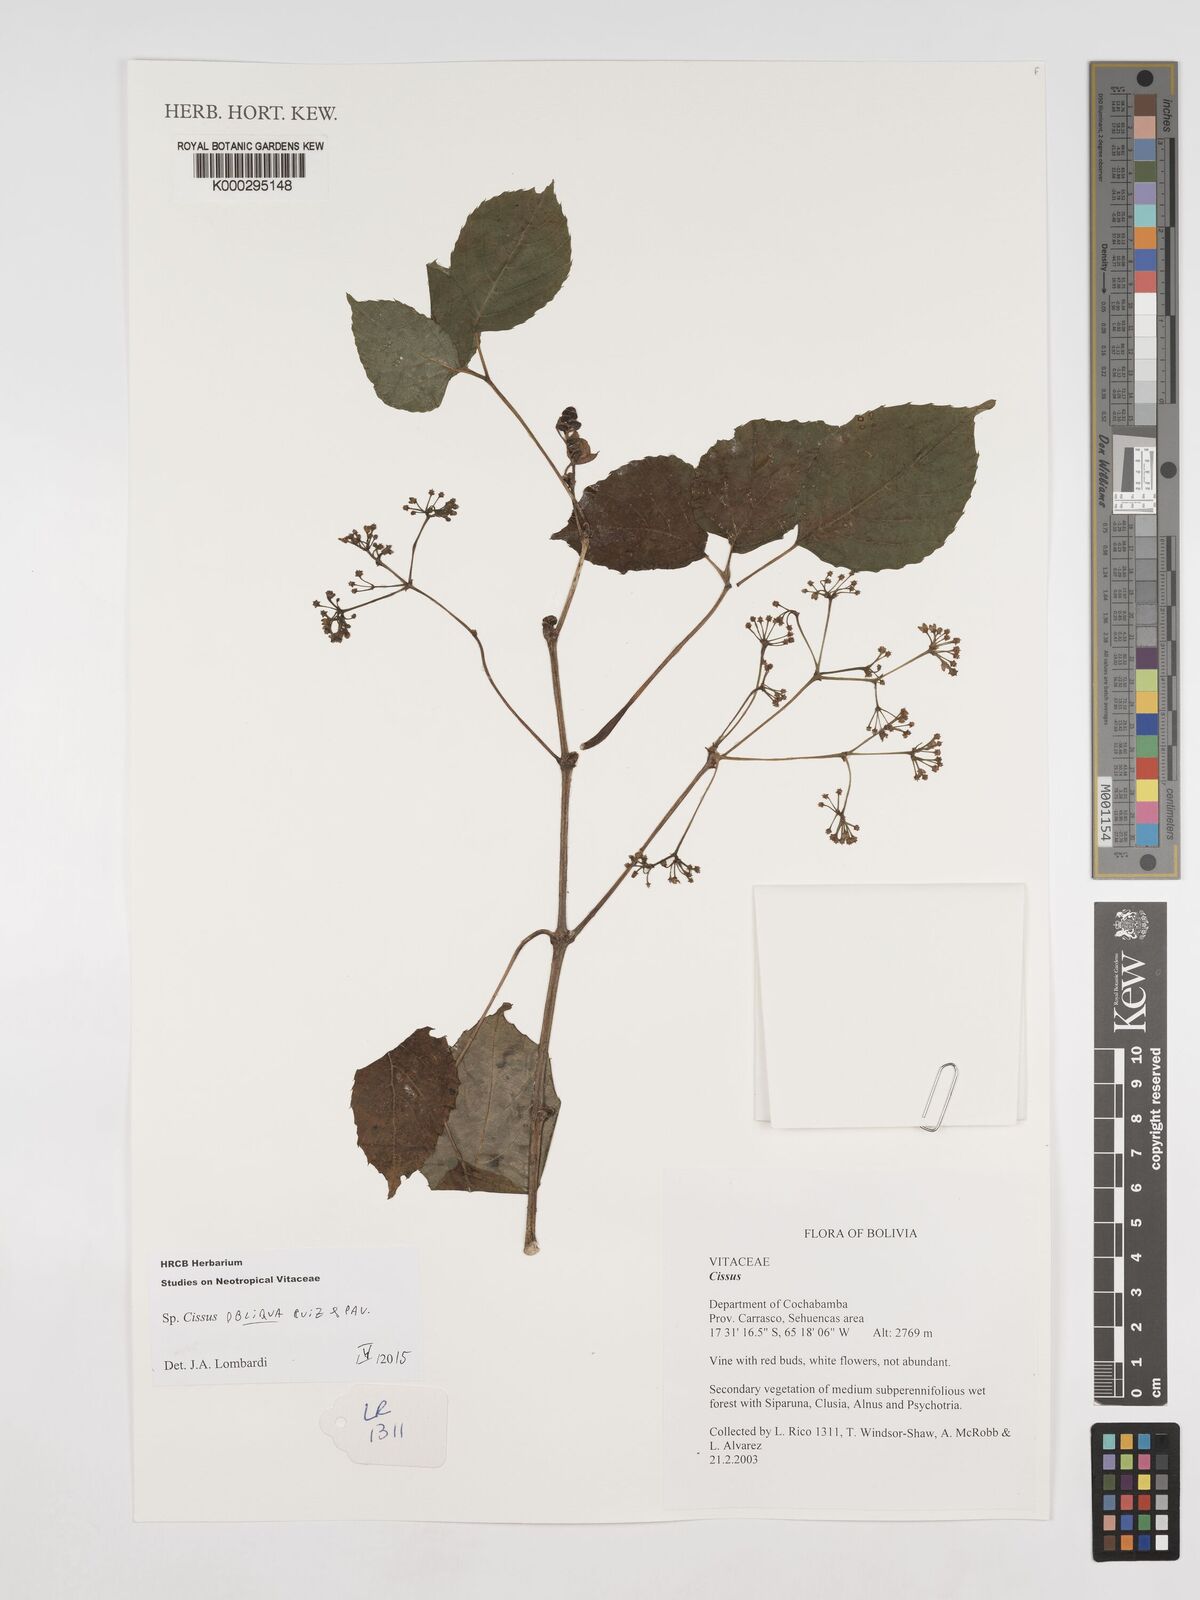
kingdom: Plantae
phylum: Tracheophyta
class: Magnoliopsida
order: Vitales
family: Vitaceae
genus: Cissus
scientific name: Cissus obliqua
